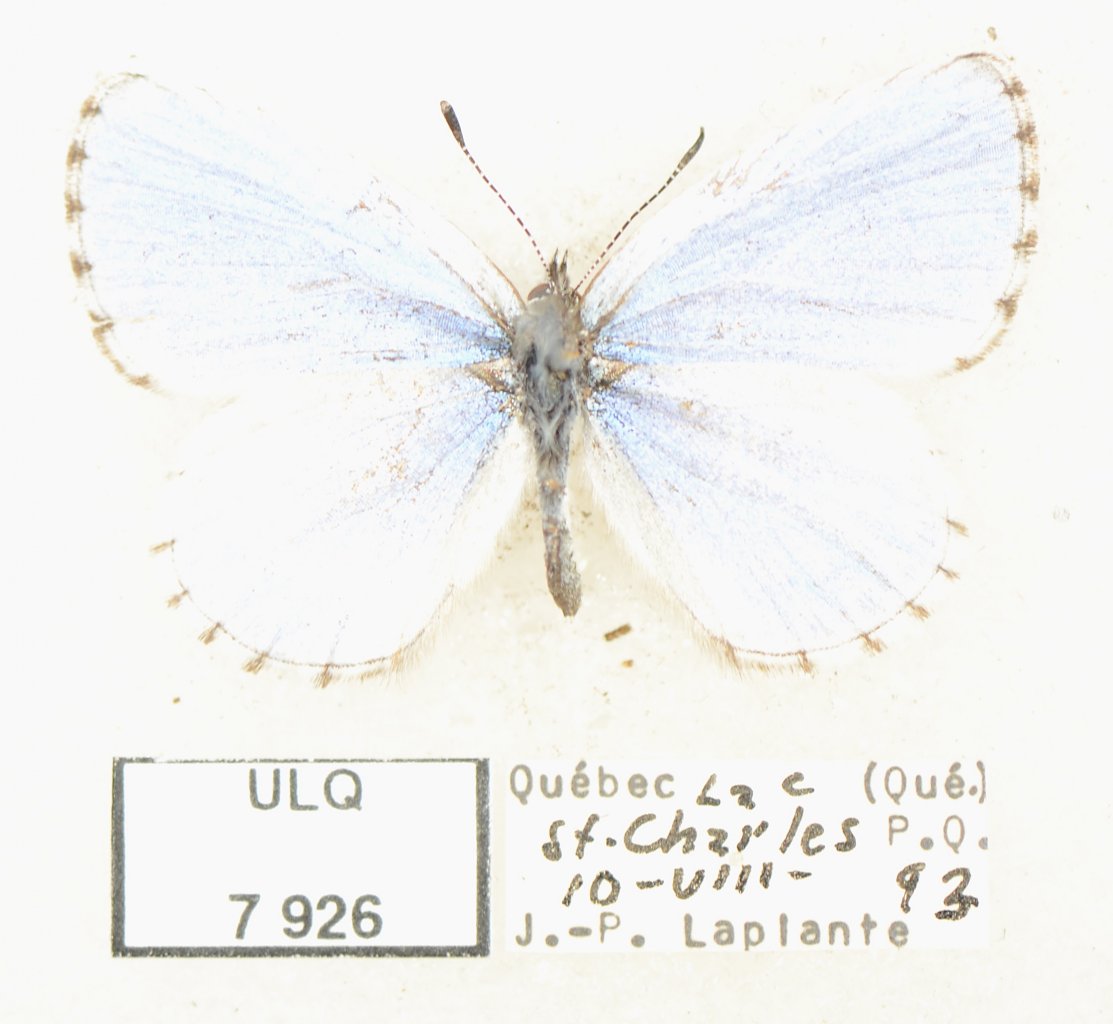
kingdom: Animalia
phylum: Arthropoda
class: Insecta
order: Lepidoptera
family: Lycaenidae
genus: Celastrina
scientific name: Celastrina lucia
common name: Northern Spring Azure
